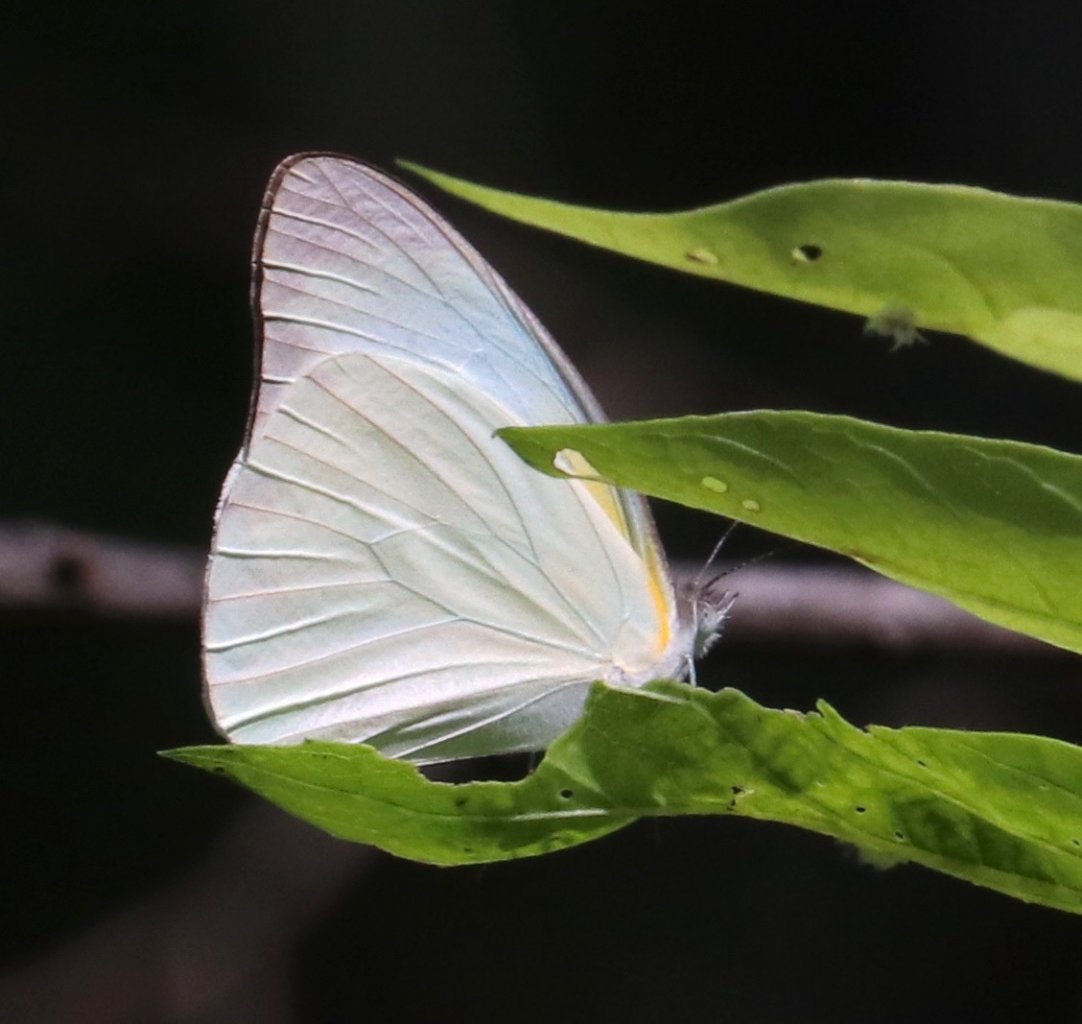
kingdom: Animalia
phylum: Arthropoda
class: Insecta
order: Lepidoptera
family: Pieridae
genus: Glutophrissa
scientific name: Glutophrissa drusilla
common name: Florida White
